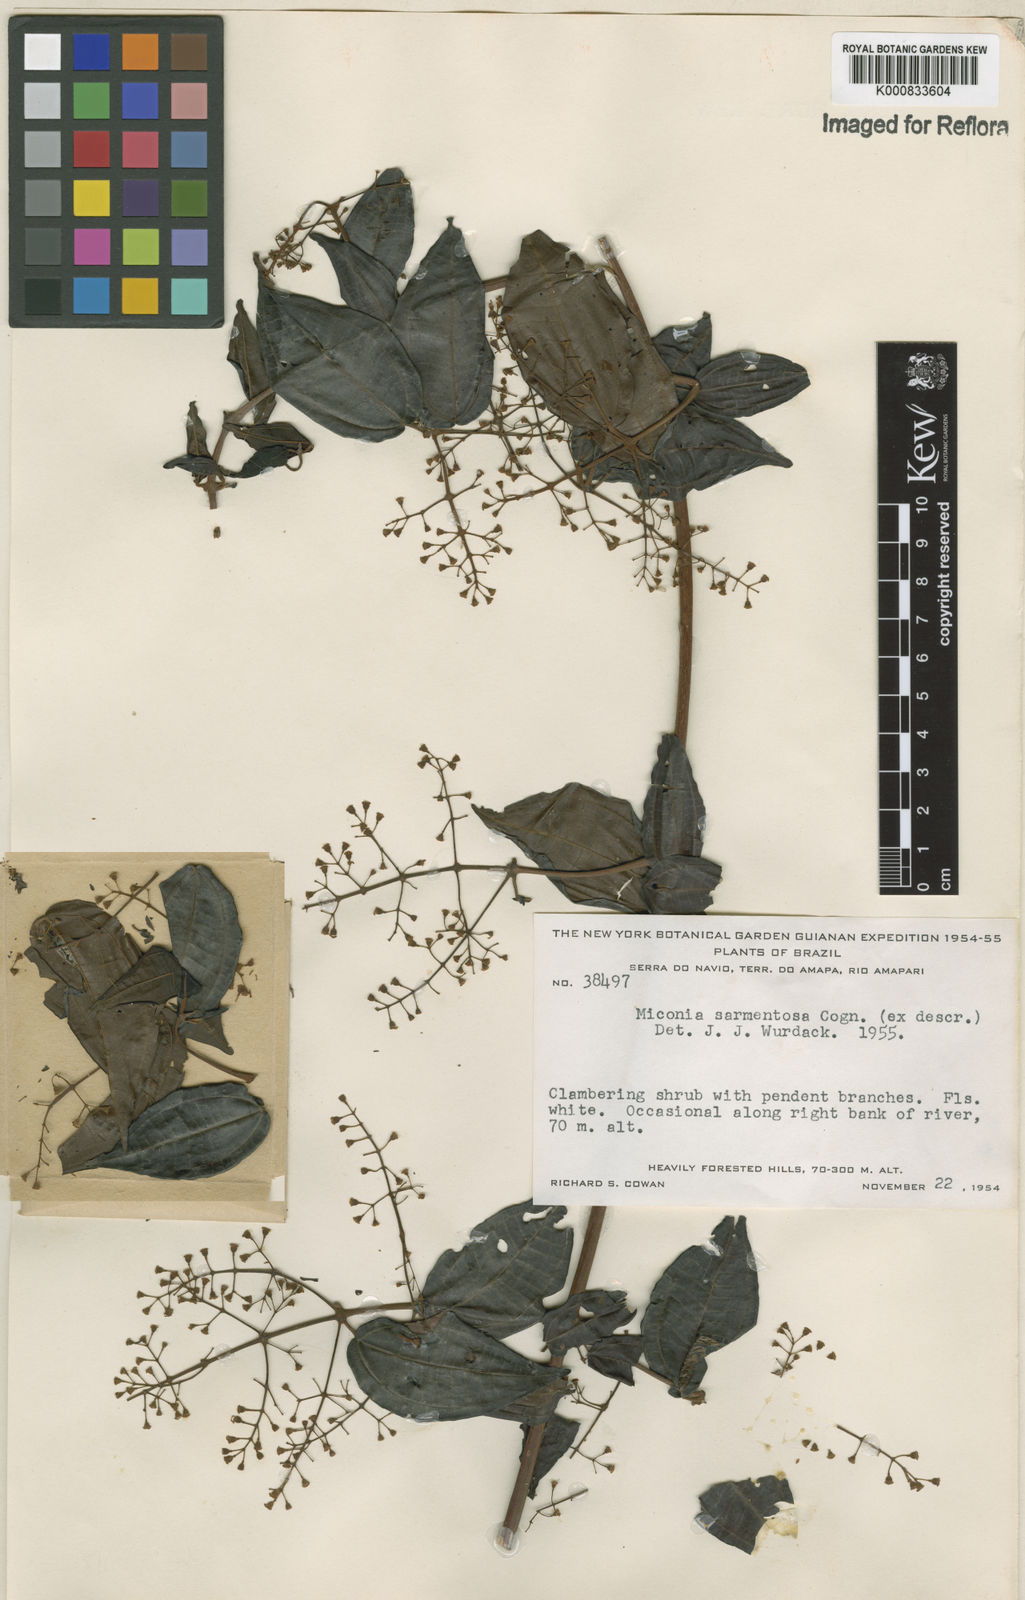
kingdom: Plantae
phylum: Tracheophyta
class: Magnoliopsida
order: Myrtales
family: Melastomataceae
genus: Miconia
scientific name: Miconia sarmentosa
